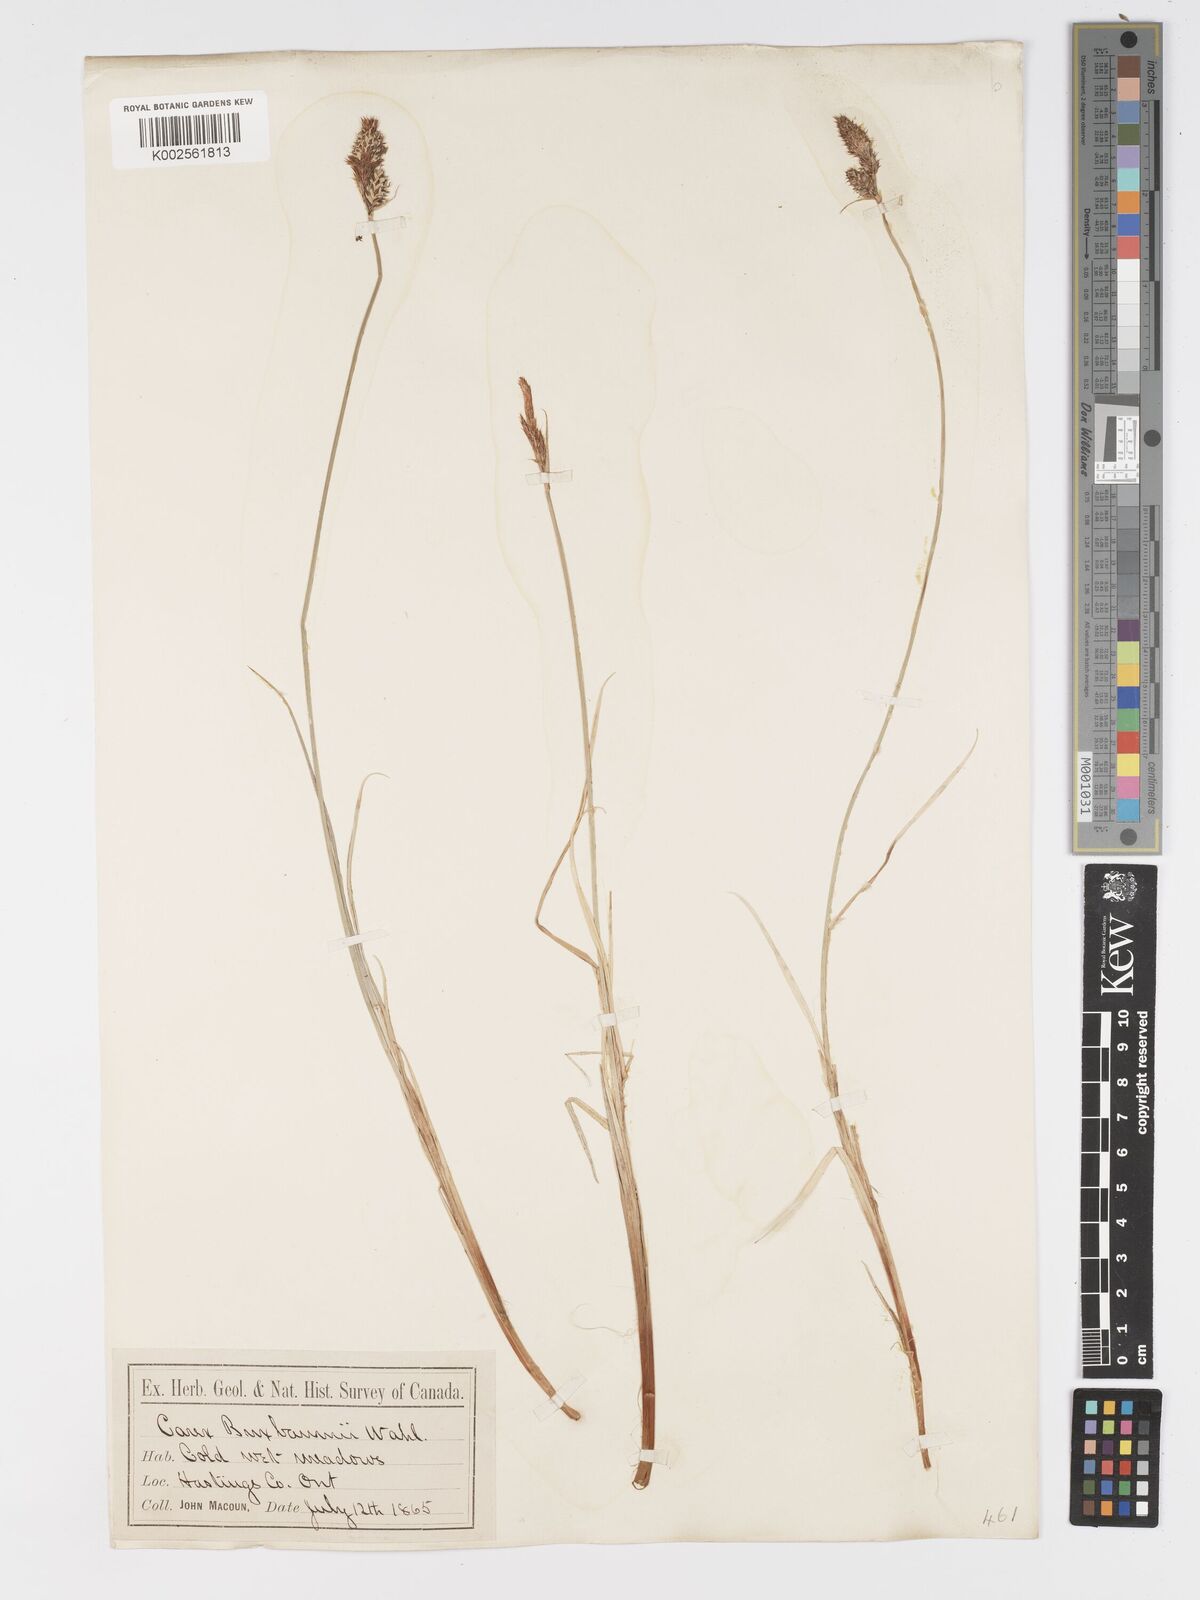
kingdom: Plantae
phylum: Tracheophyta
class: Liliopsida
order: Poales
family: Cyperaceae
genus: Carex
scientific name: Carex buxbaumii
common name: Club sedge
